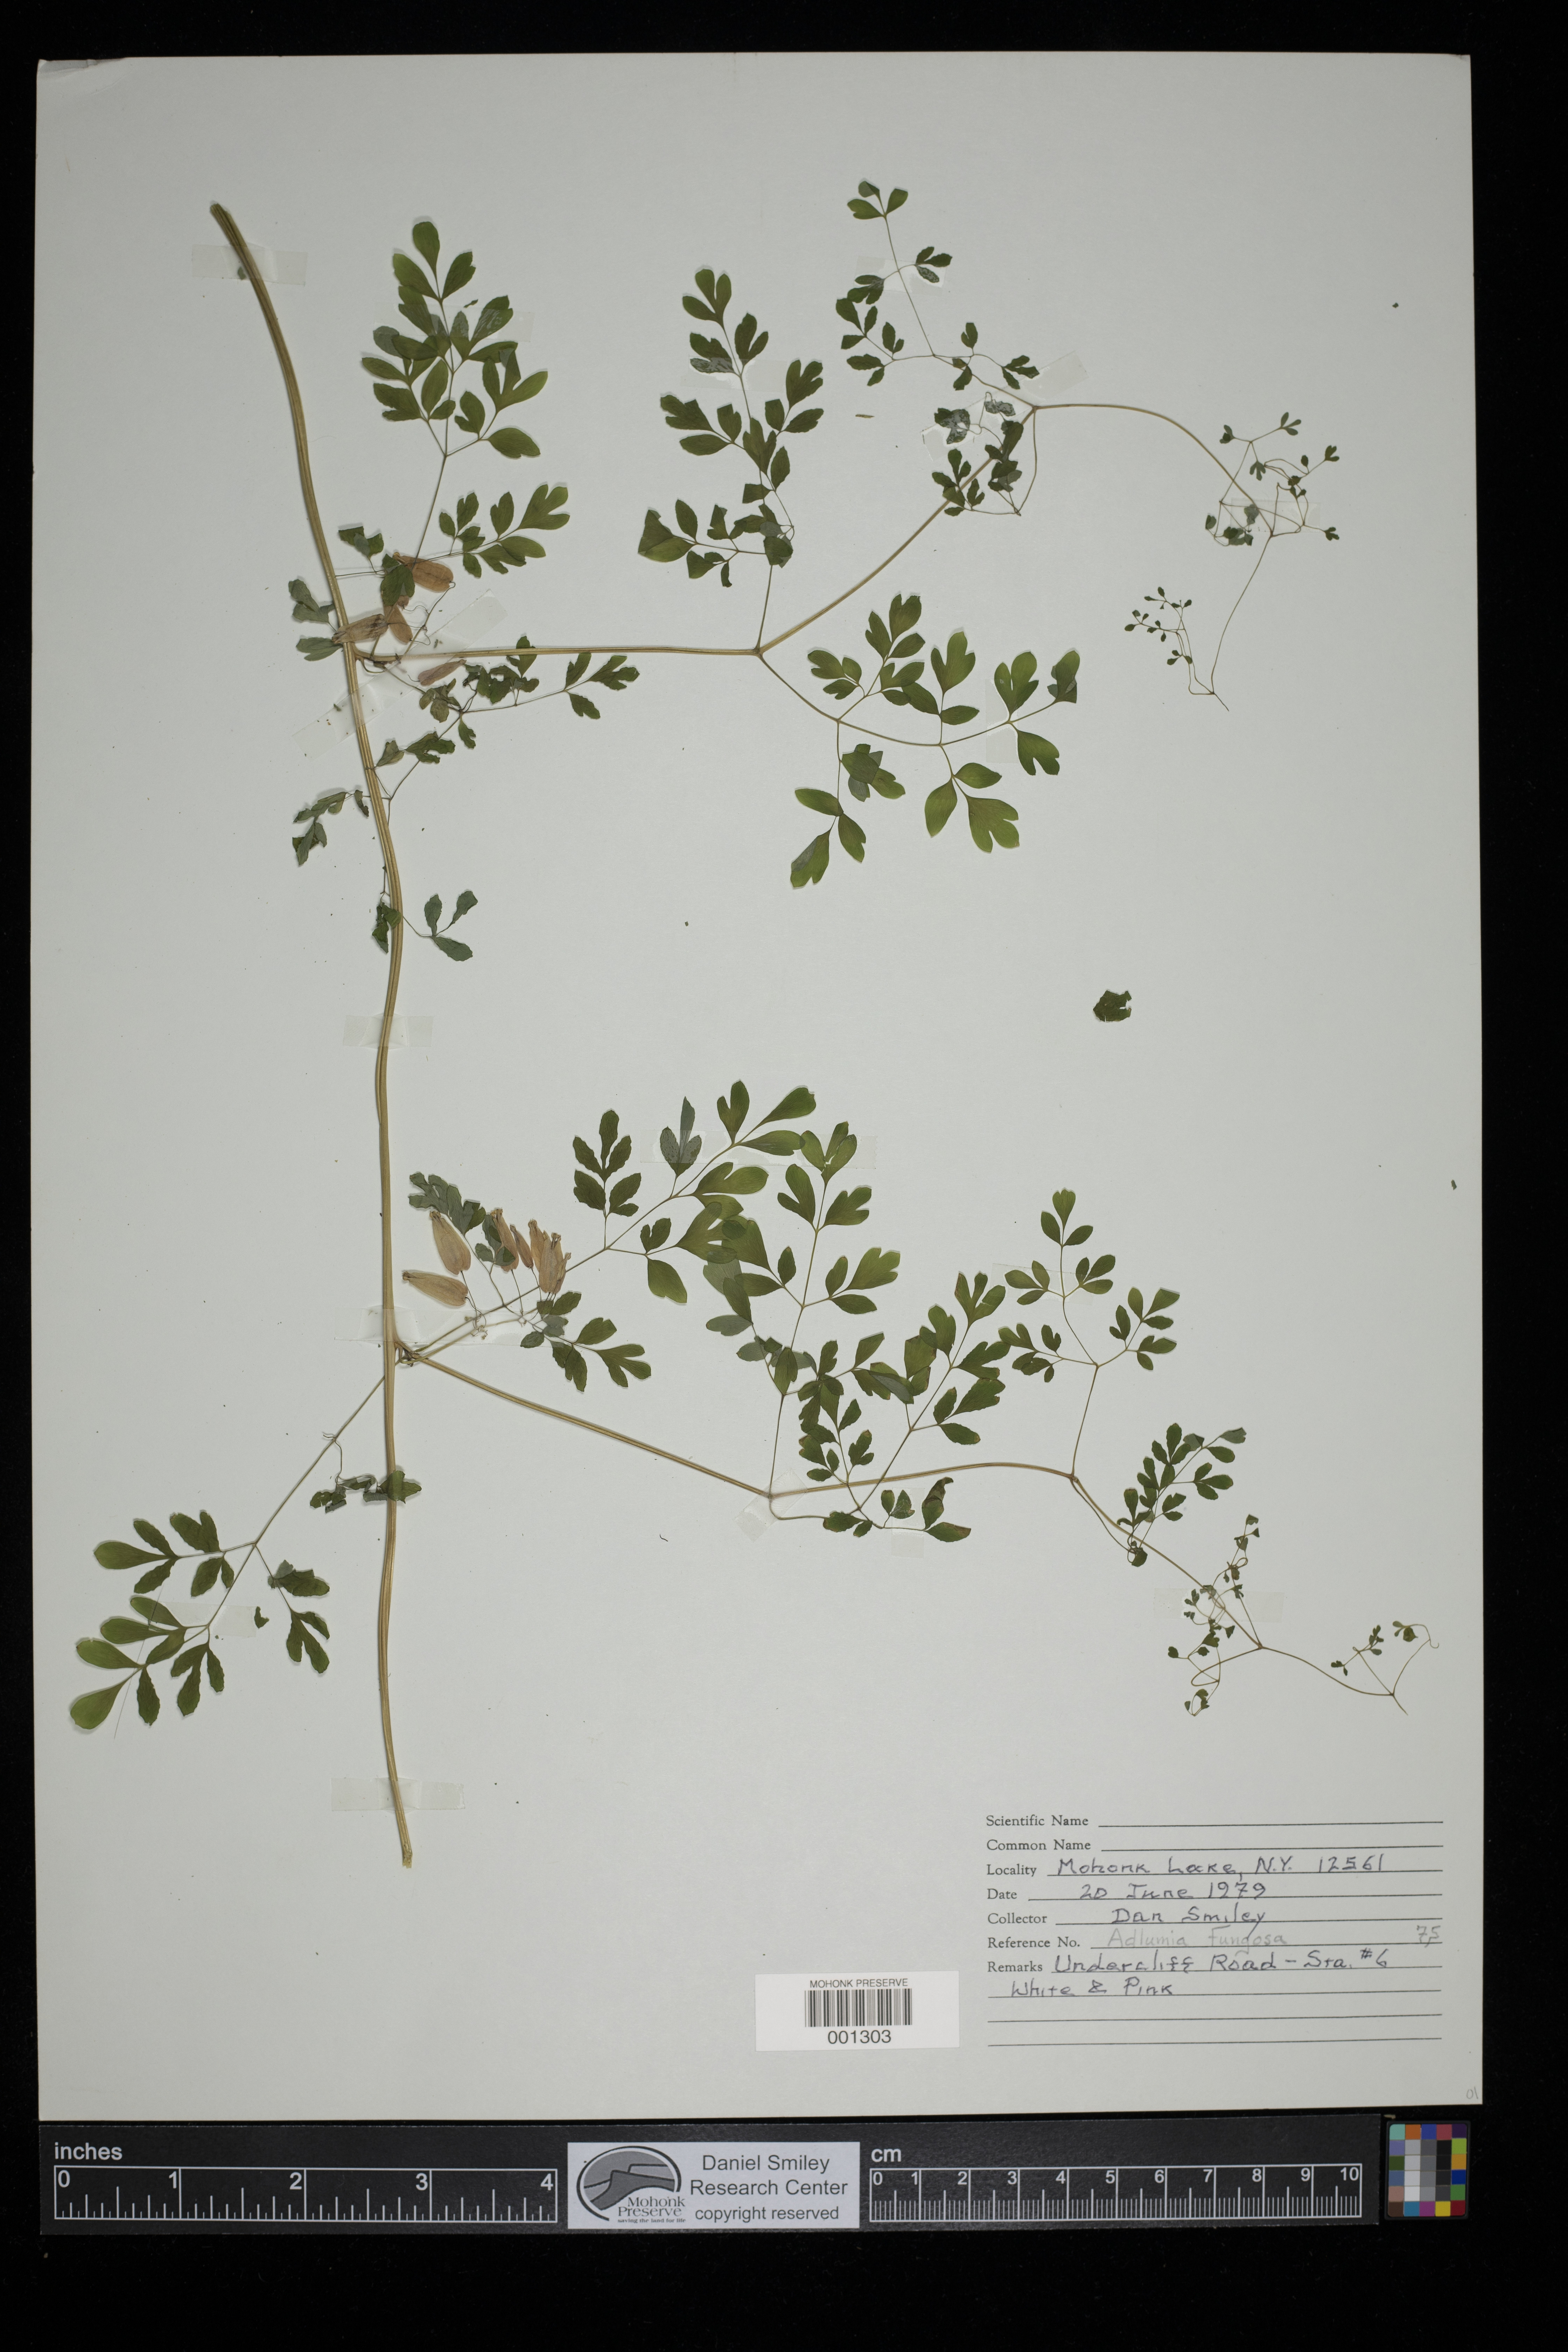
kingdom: Plantae
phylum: Tracheophyta
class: Magnoliopsida
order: Ranunculales
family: Papaveraceae
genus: Adlumia
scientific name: Adlumia fungosa
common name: Mountain-fringe
